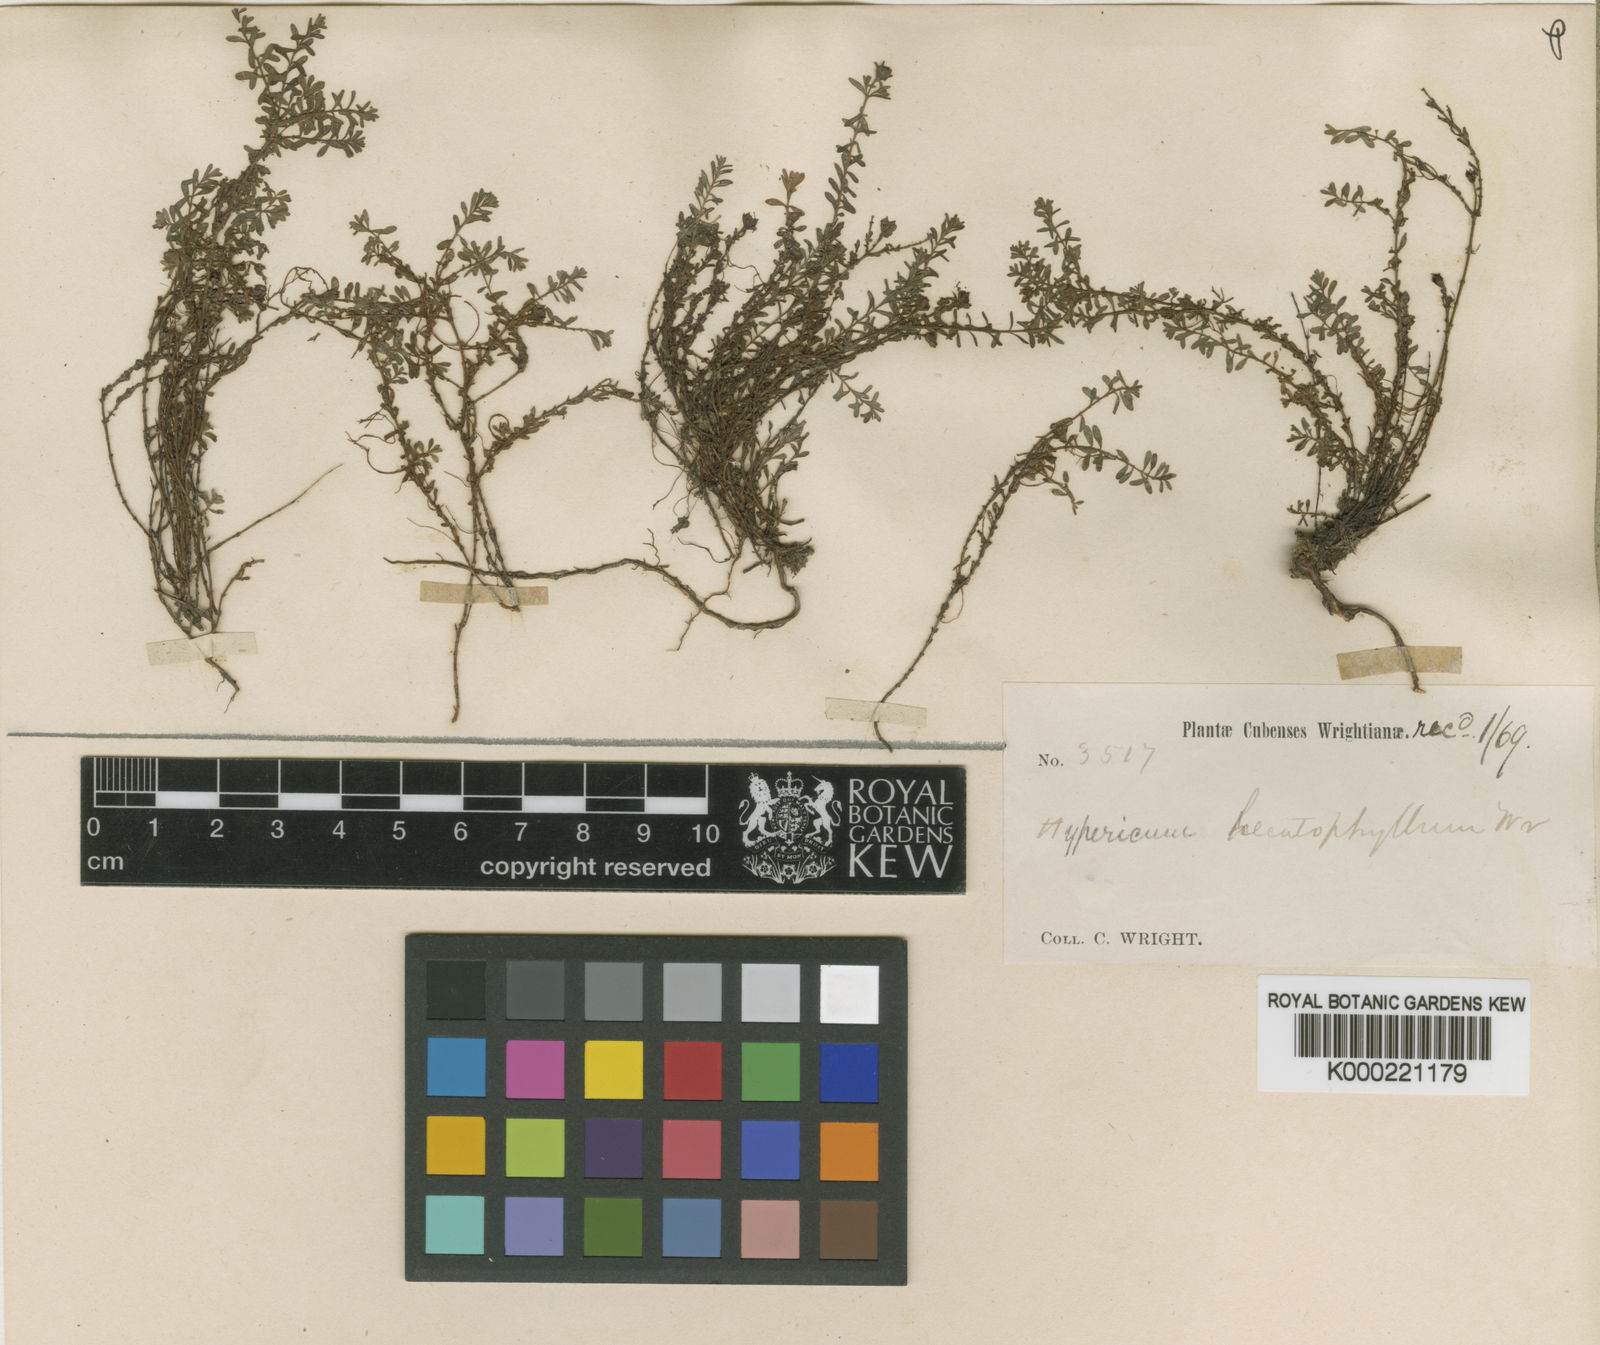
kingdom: Plantae
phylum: Tracheophyta
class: Magnoliopsida
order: Malpighiales
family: Hypericaceae
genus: Hypericum
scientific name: Hypericum diosmoides
